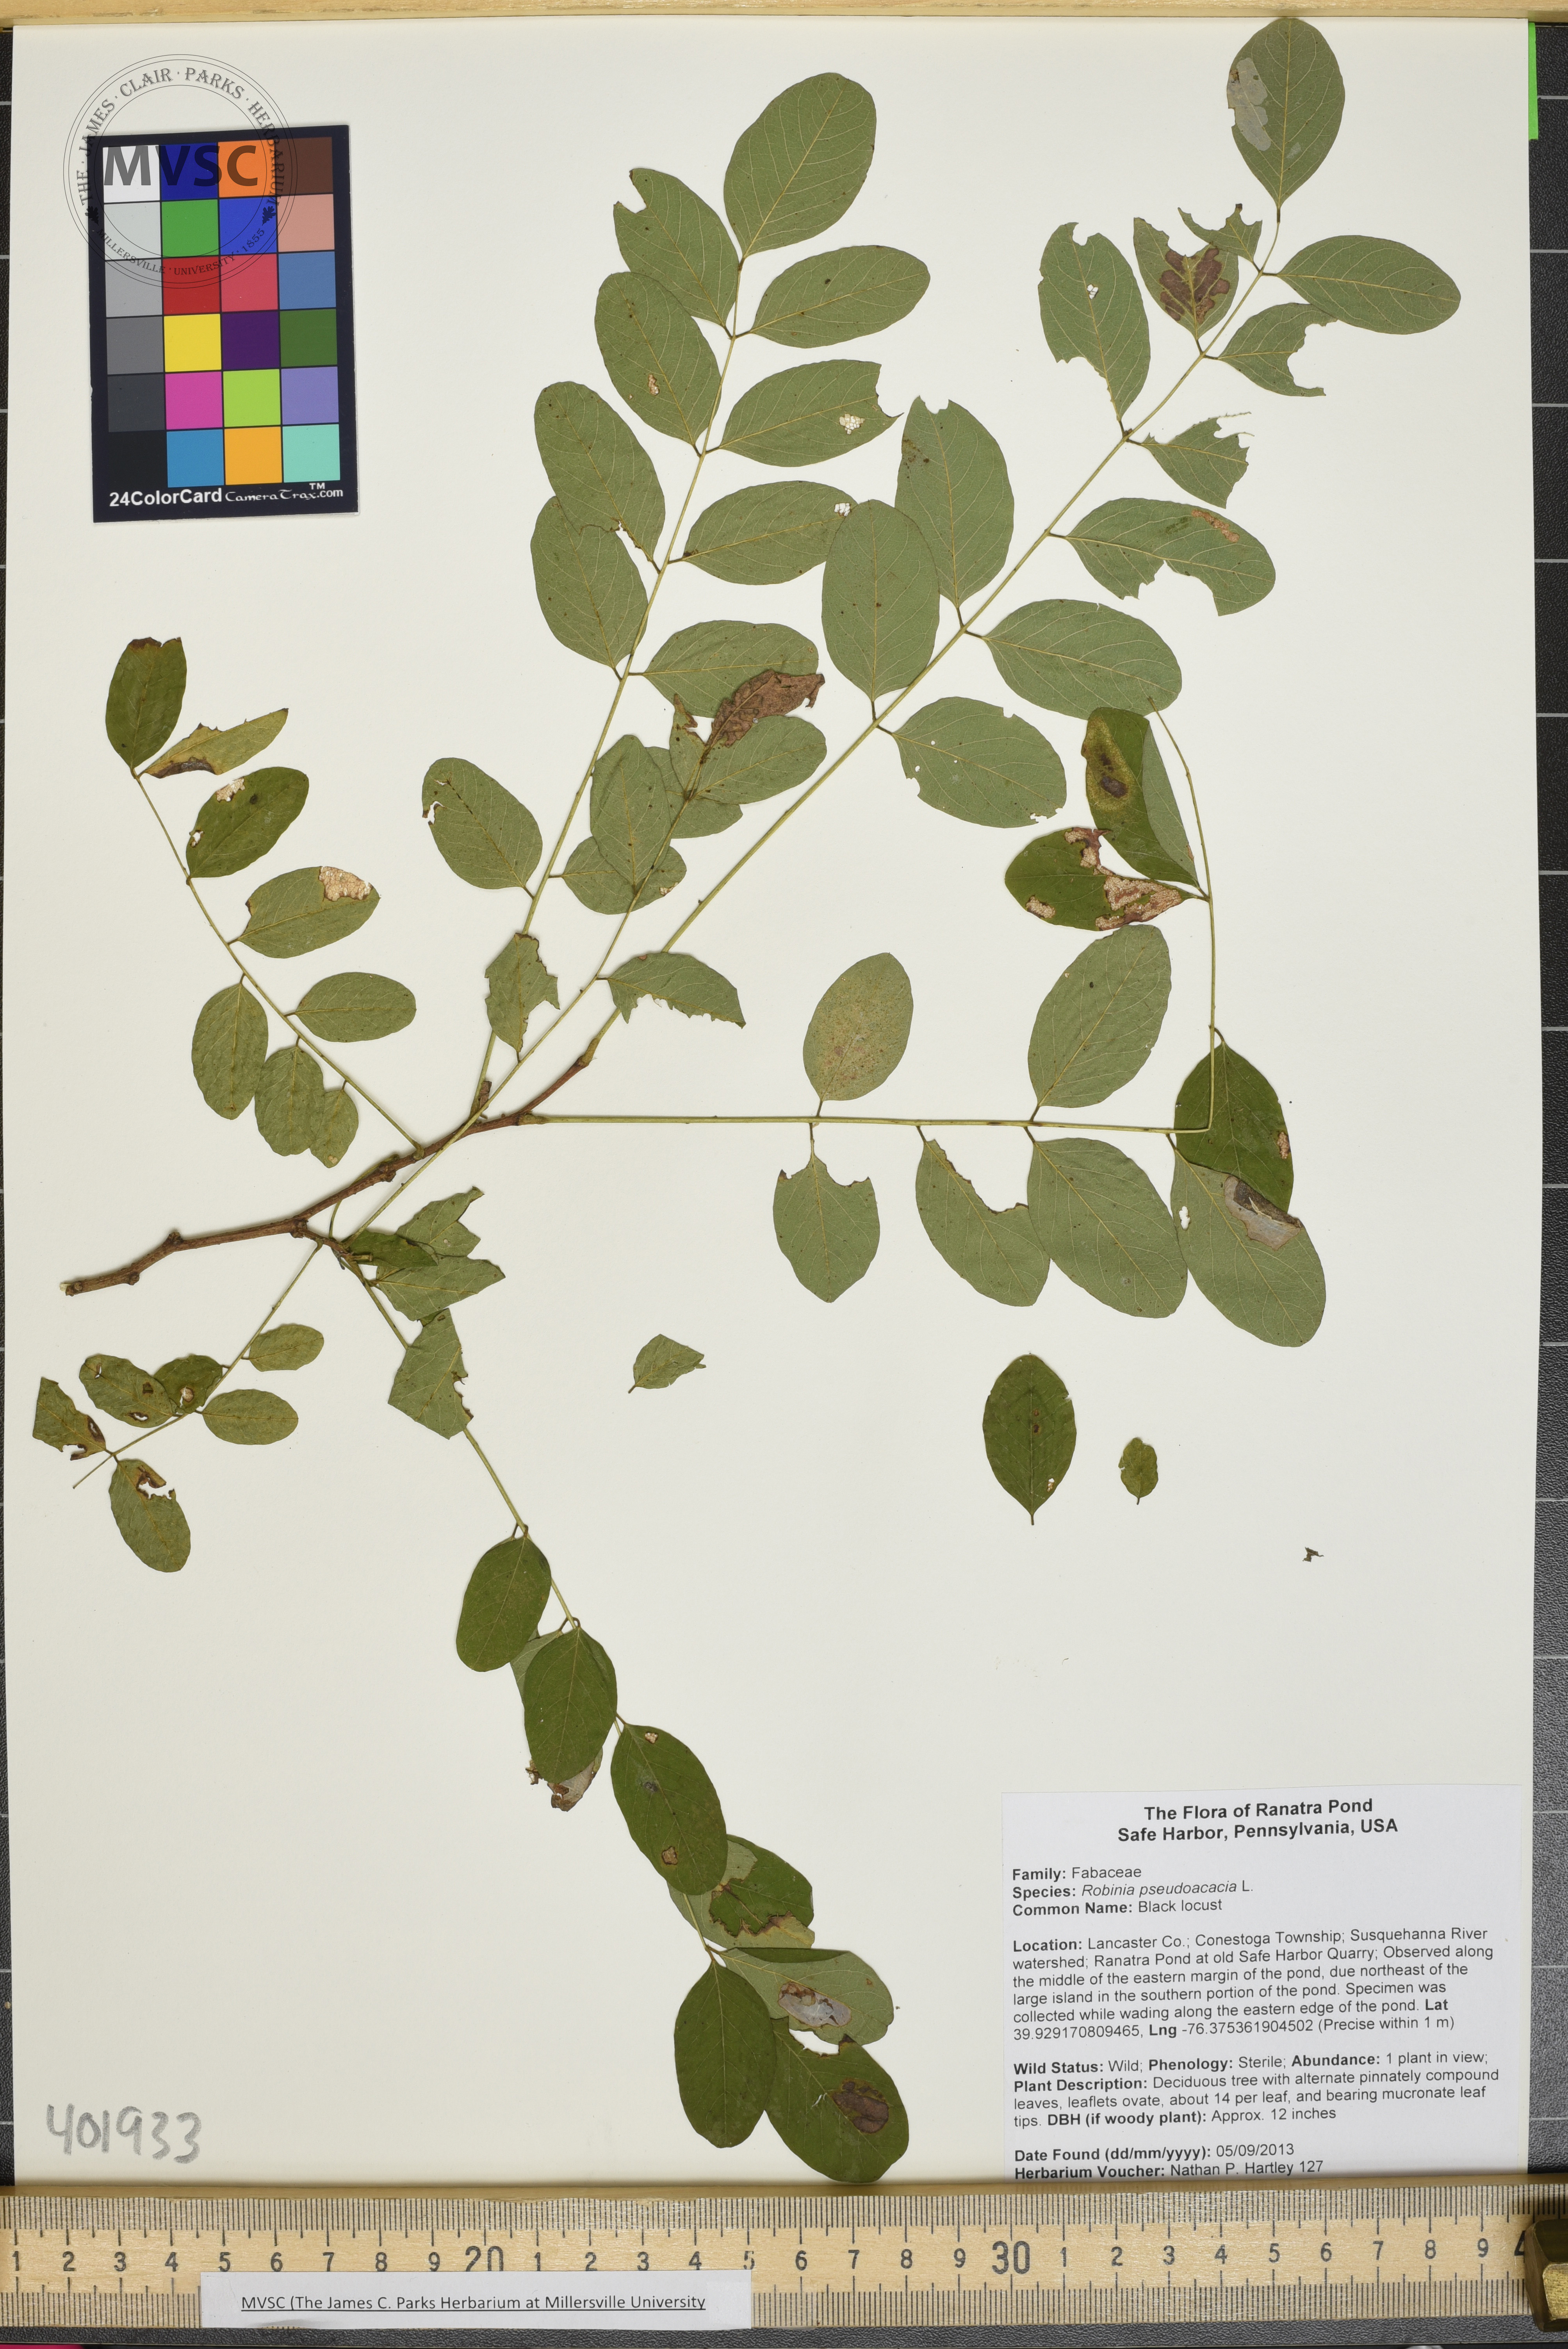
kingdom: Plantae
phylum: Tracheophyta
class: Magnoliopsida
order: Fabales
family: Fabaceae
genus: Robinia
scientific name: Robinia pseudoacacia
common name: Black locust
